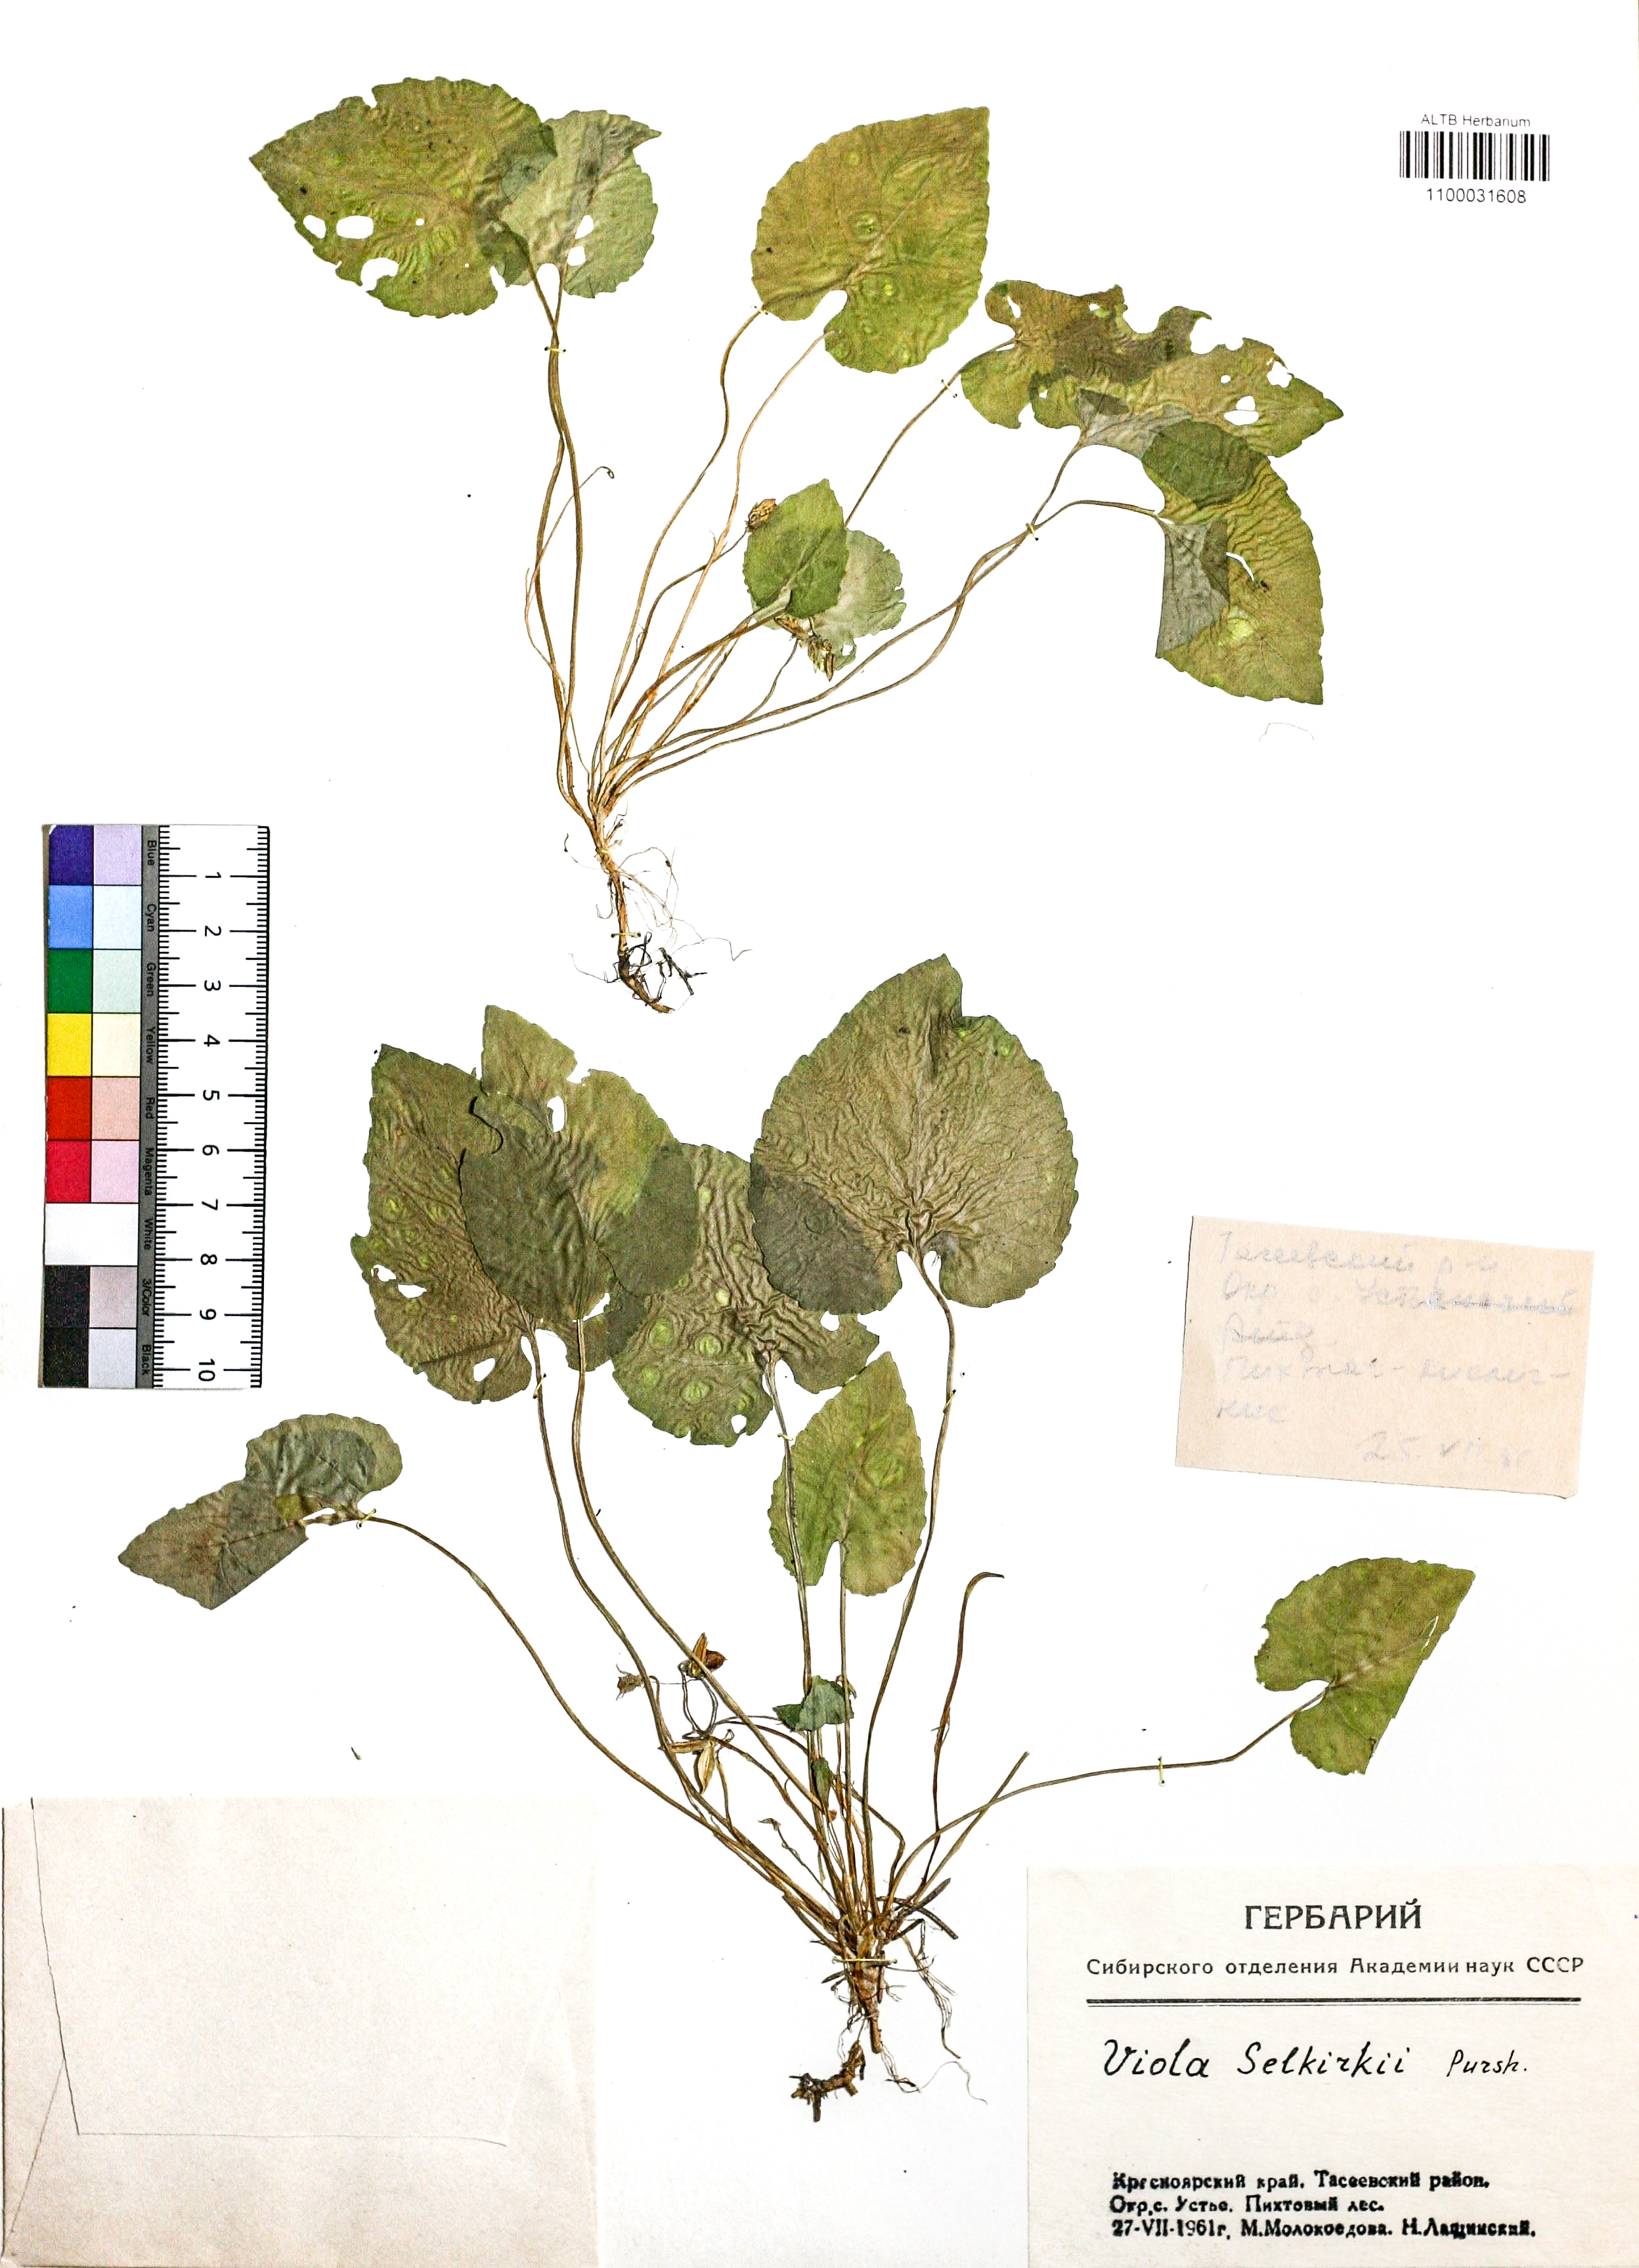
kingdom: Plantae
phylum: Tracheophyta
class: Magnoliopsida
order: Malpighiales
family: Violaceae
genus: Viola
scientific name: Viola selkirkii
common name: Selkirk's violet
